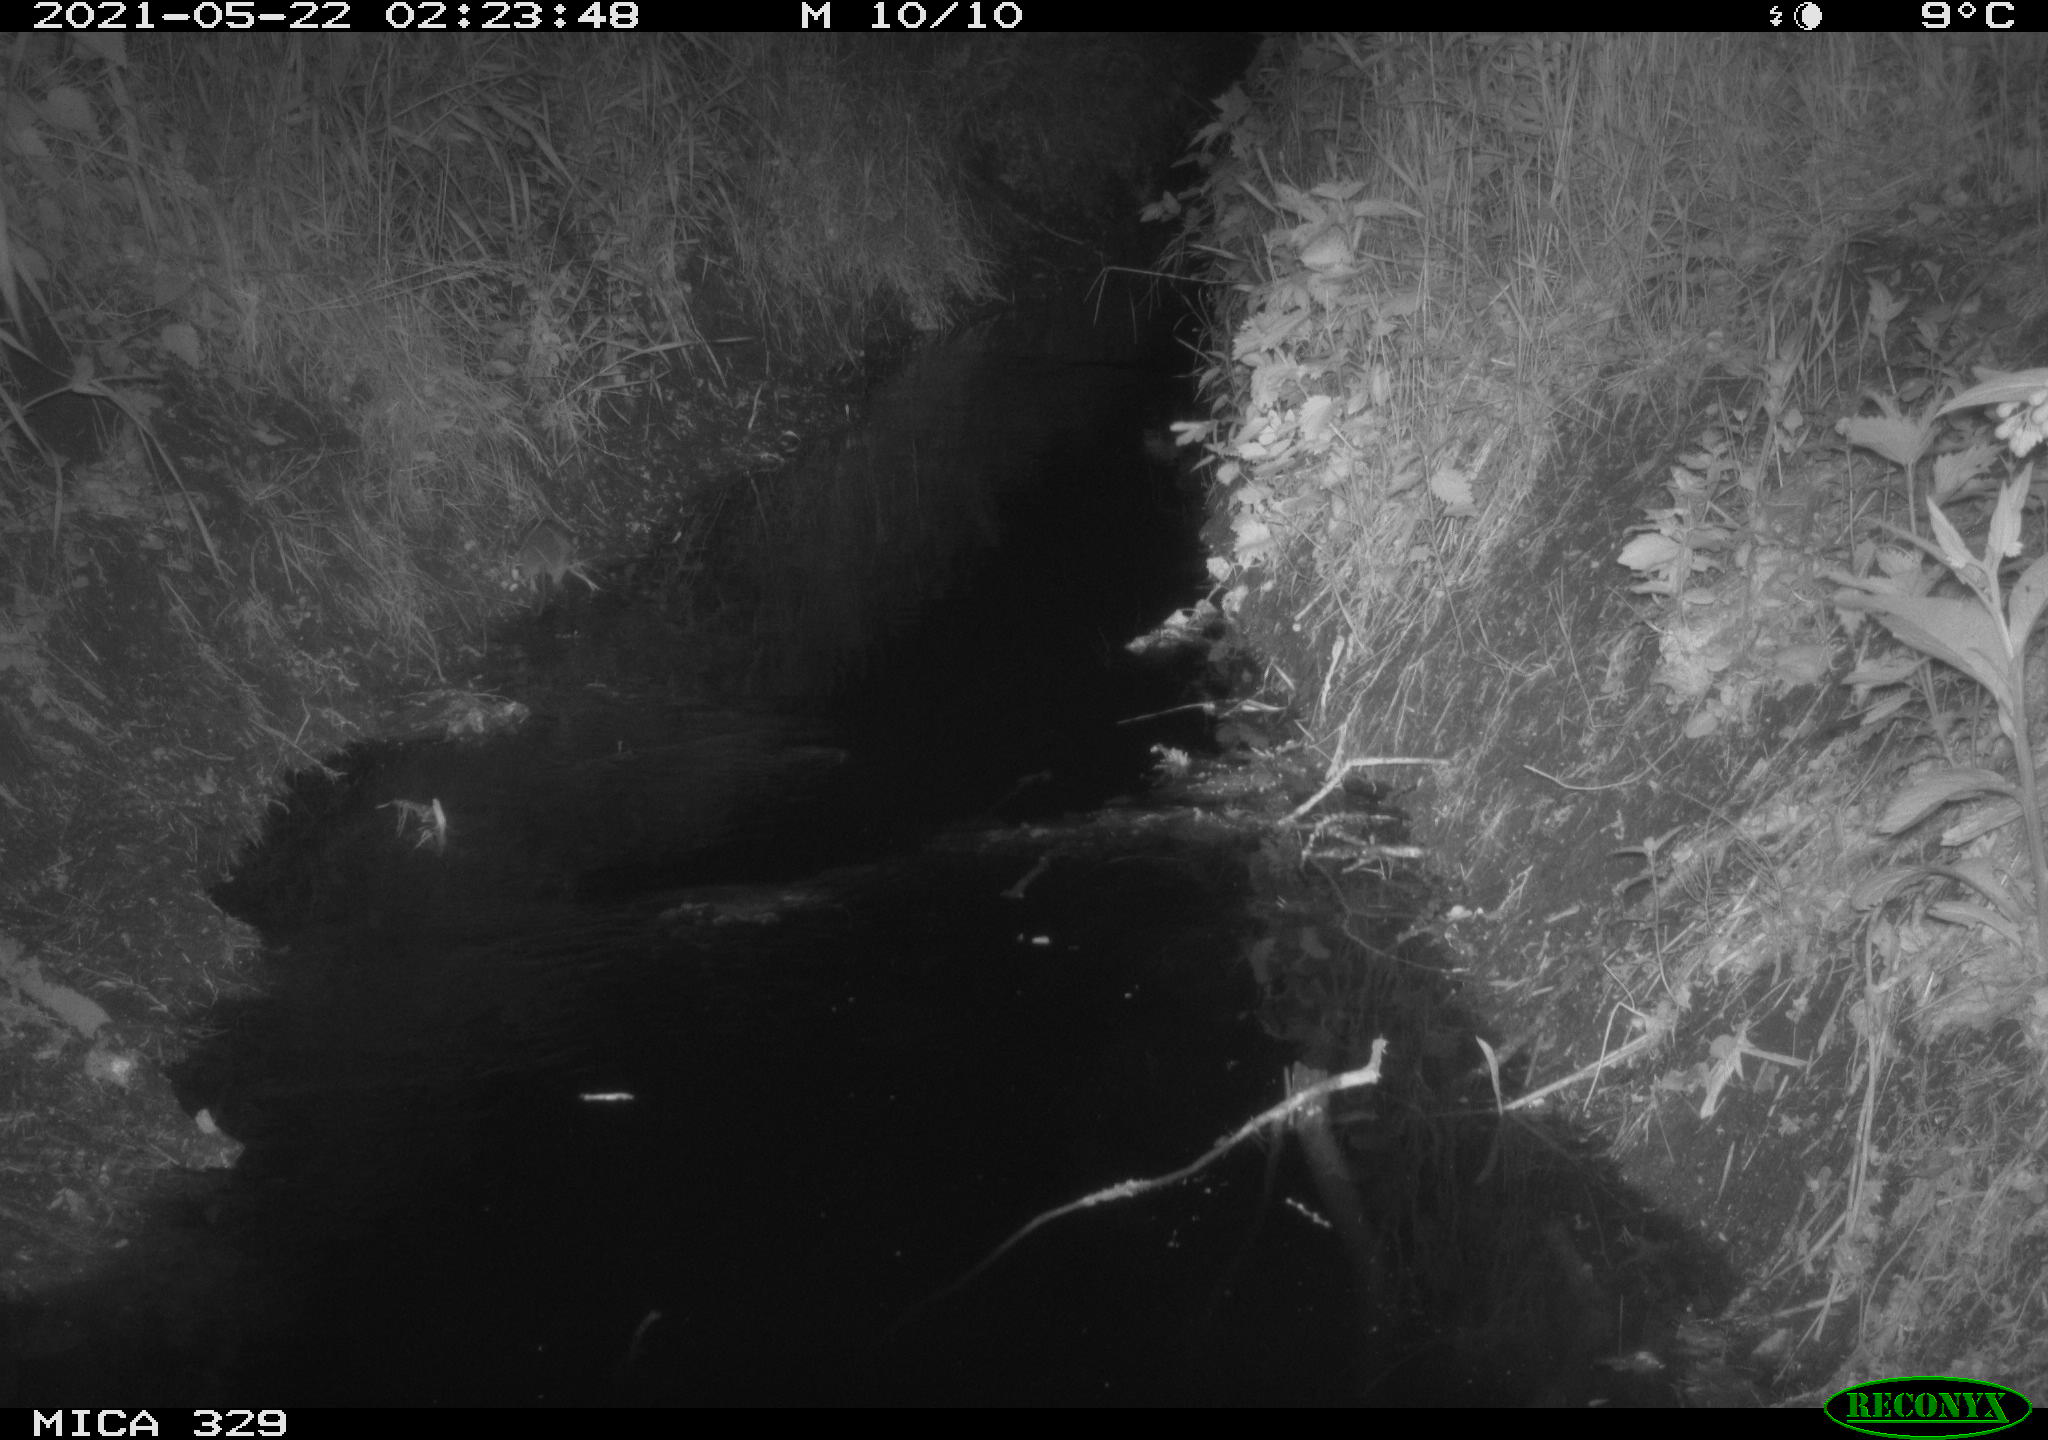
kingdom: Animalia
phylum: Chordata
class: Mammalia
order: Rodentia
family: Muridae
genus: Rattus
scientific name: Rattus norvegicus
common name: Brown rat
